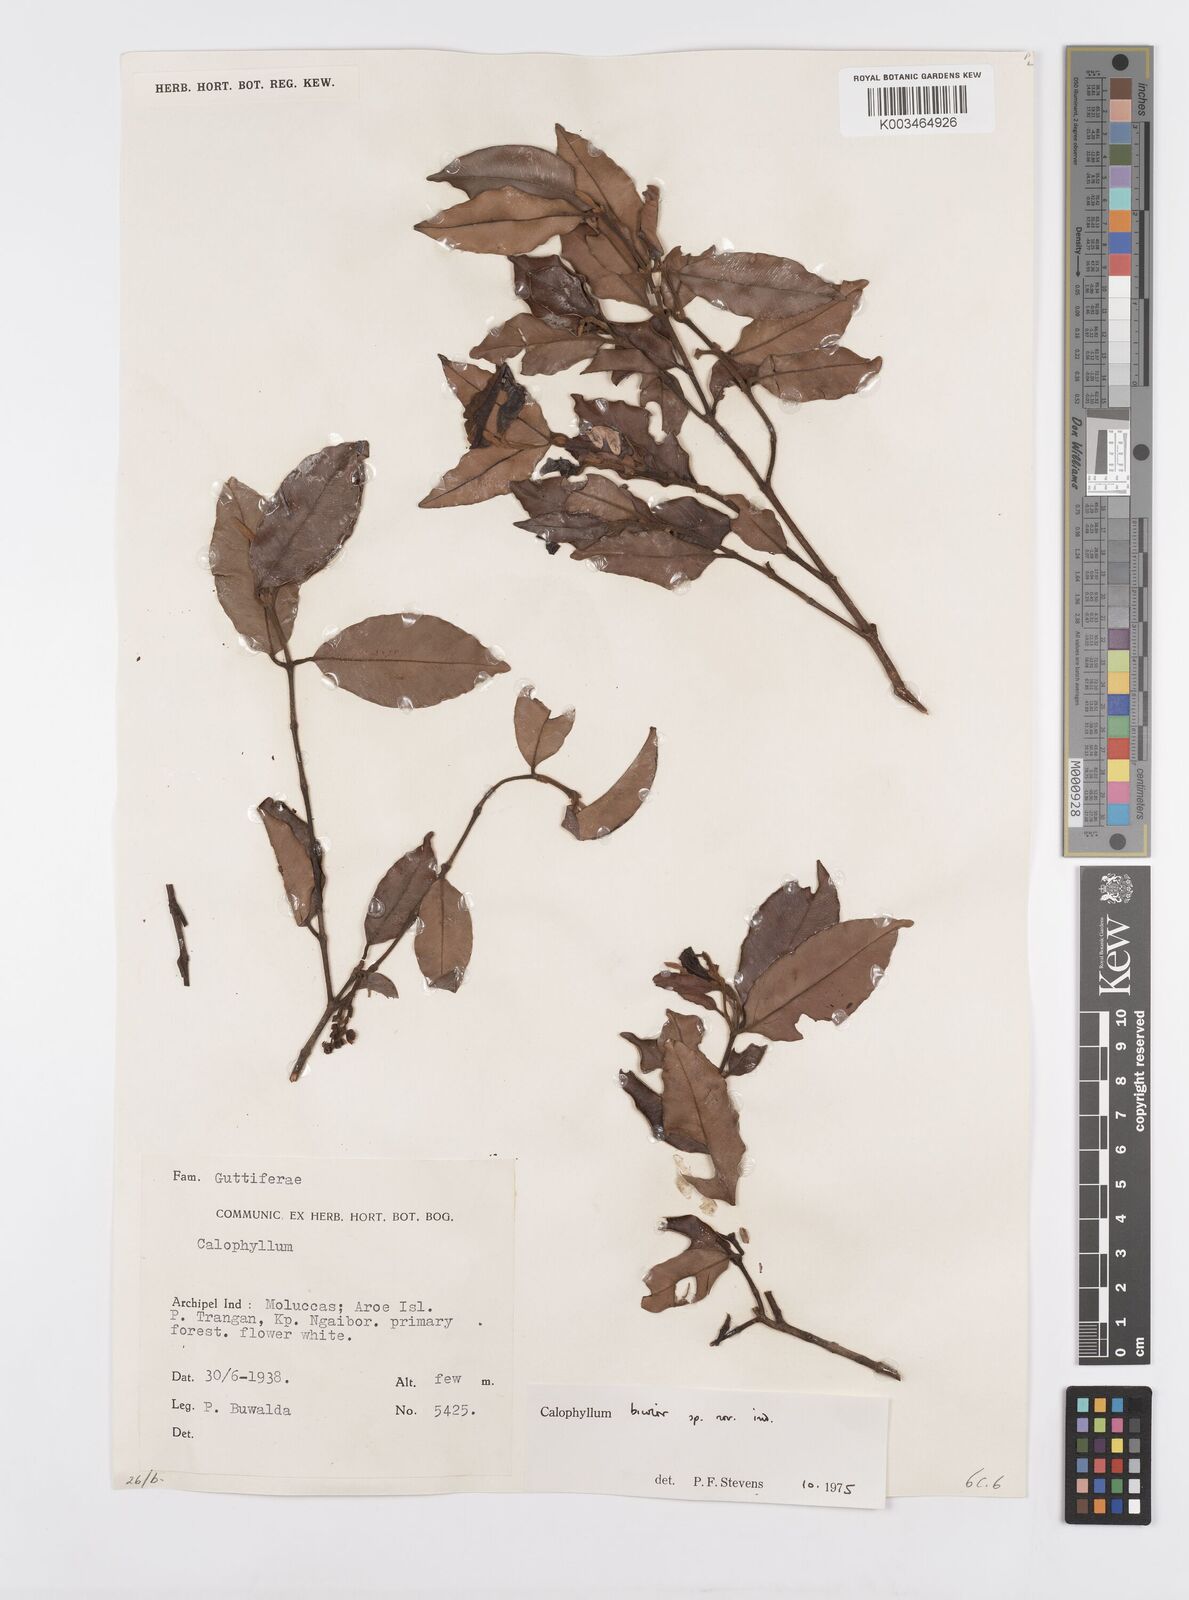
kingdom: Plantae
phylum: Tracheophyta
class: Magnoliopsida
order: Malpighiales
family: Calophyllaceae
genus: Calophyllum
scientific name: Calophyllum bicolor
